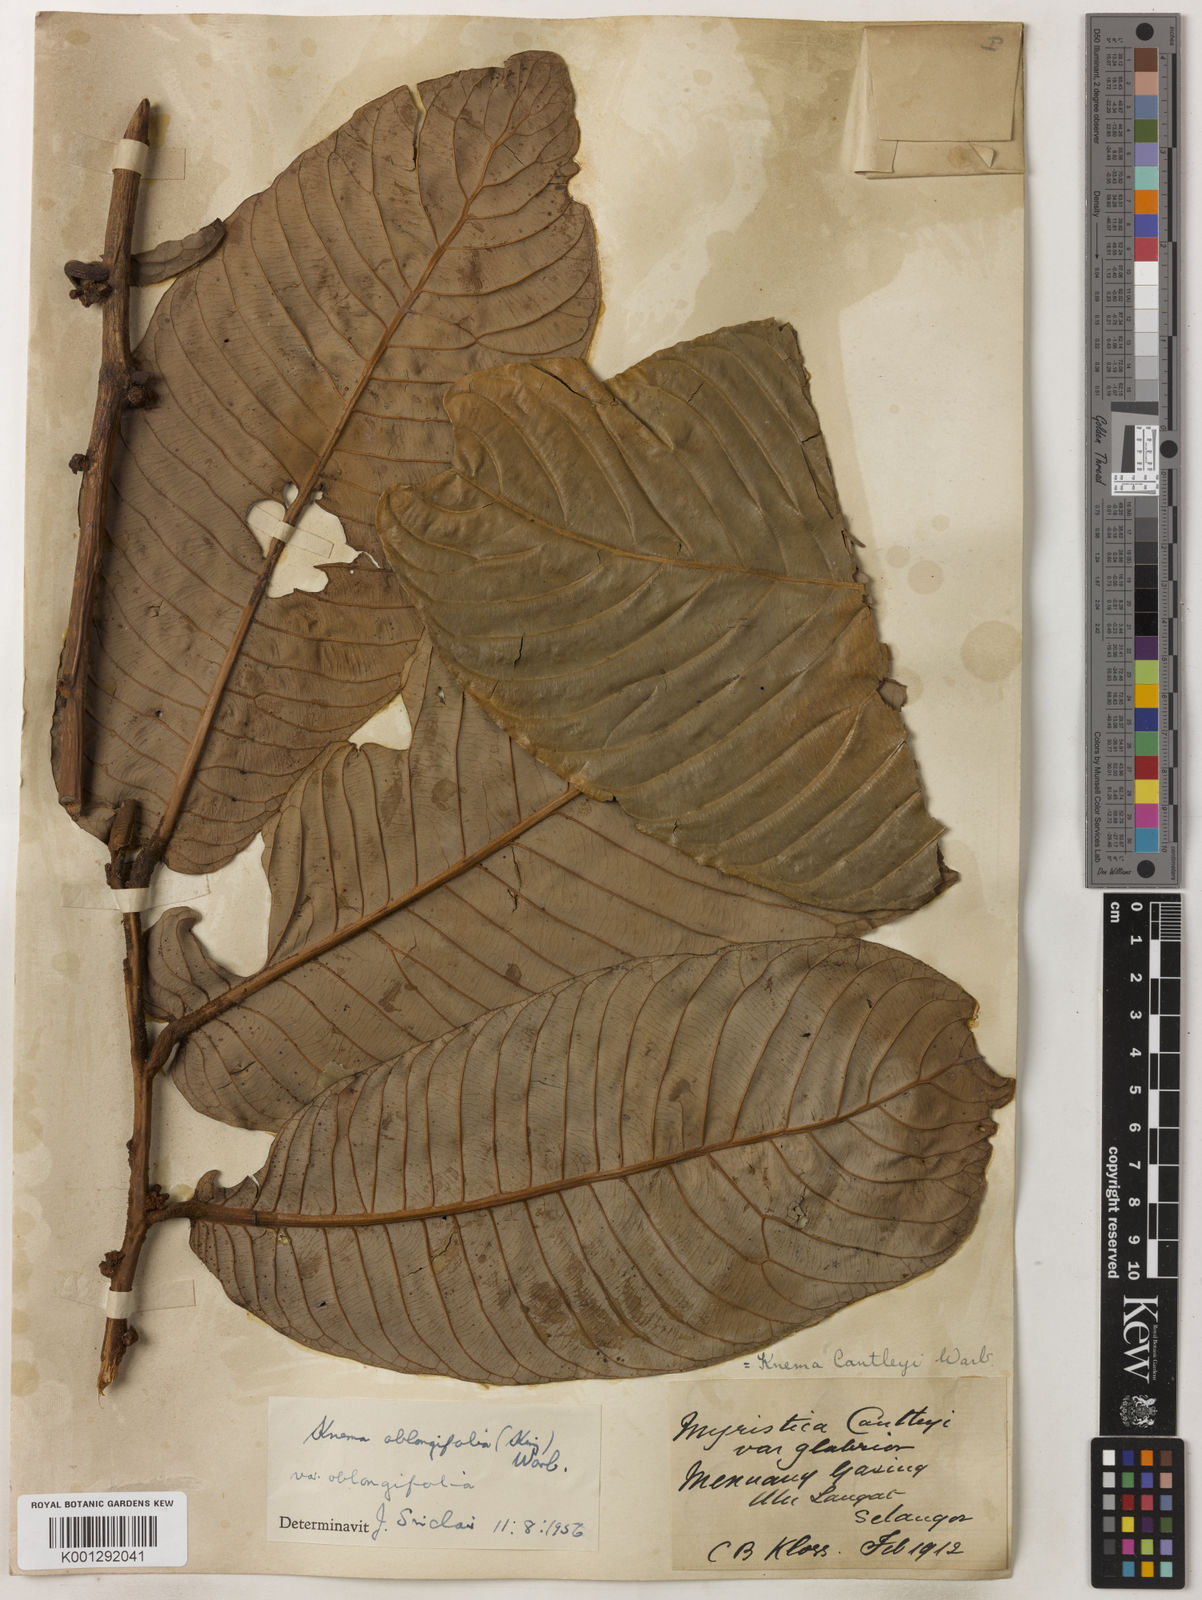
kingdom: Plantae
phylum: Tracheophyta
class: Magnoliopsida
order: Magnoliales
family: Myristicaceae
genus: Knema
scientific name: Knema oblongifolia
